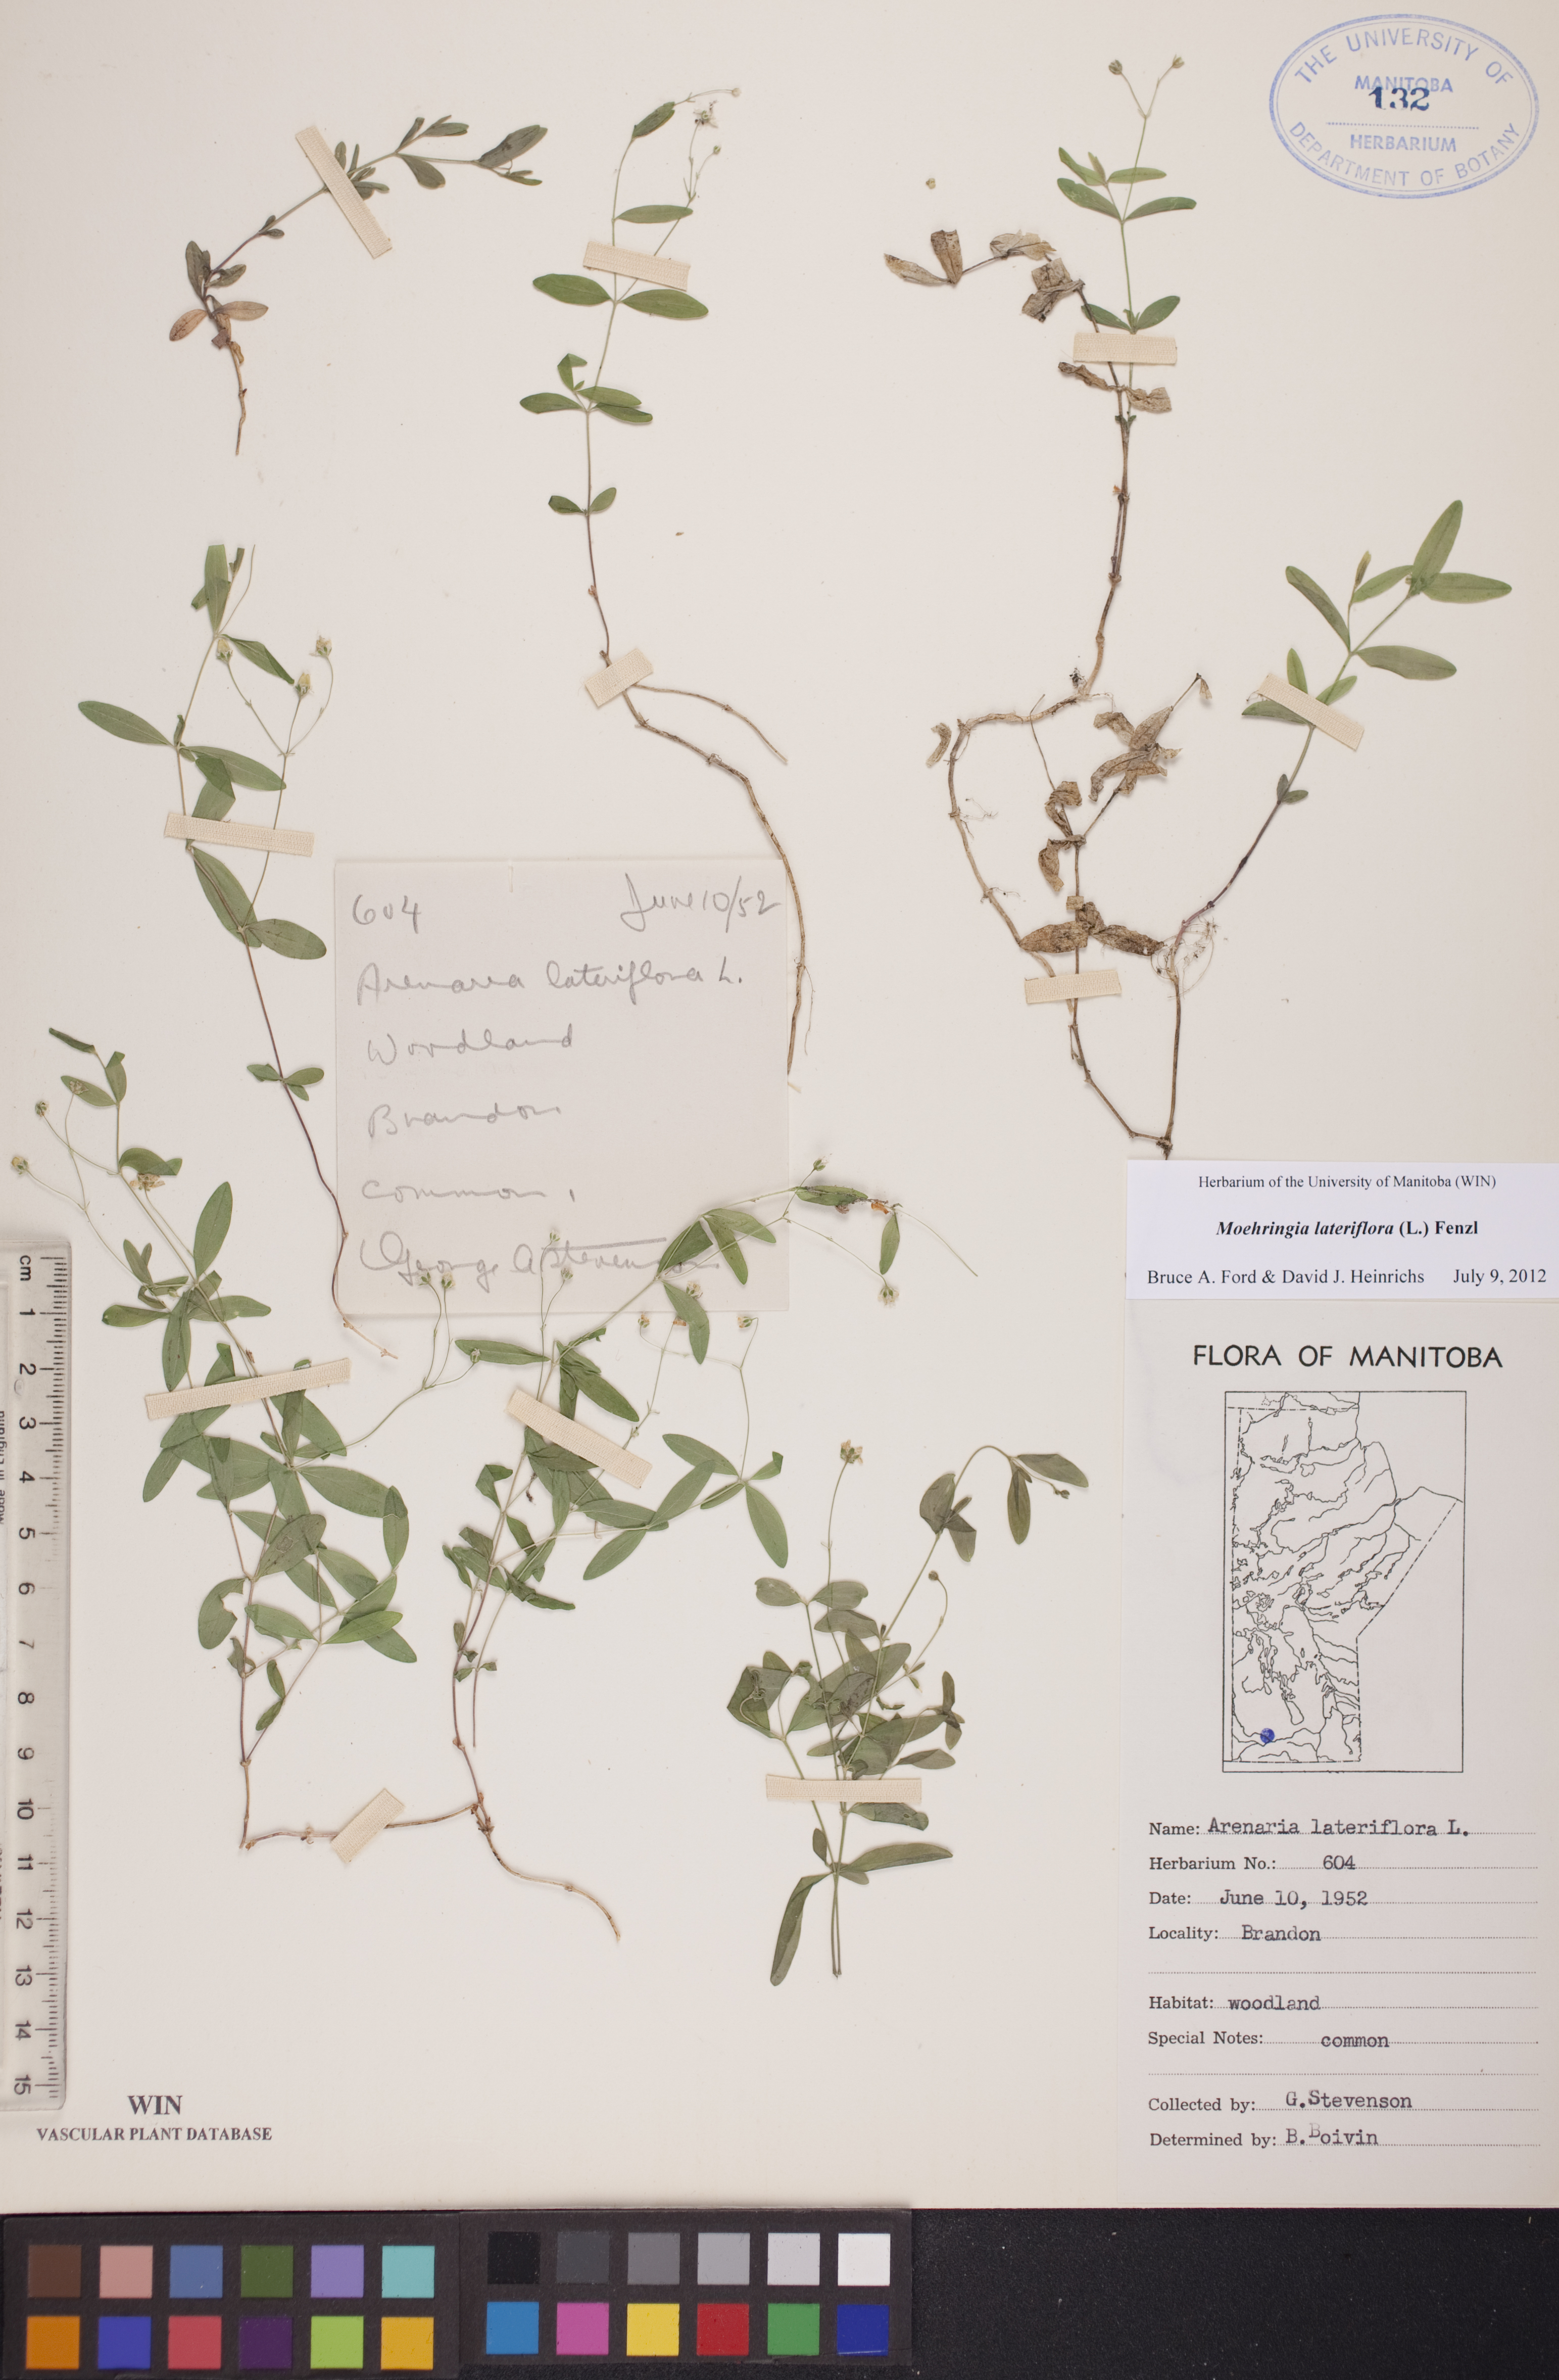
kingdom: Plantae
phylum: Tracheophyta
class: Magnoliopsida
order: Caryophyllales
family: Caryophyllaceae
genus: Moehringia
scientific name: Moehringia lateriflora
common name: Blunt-leaved sandwort
